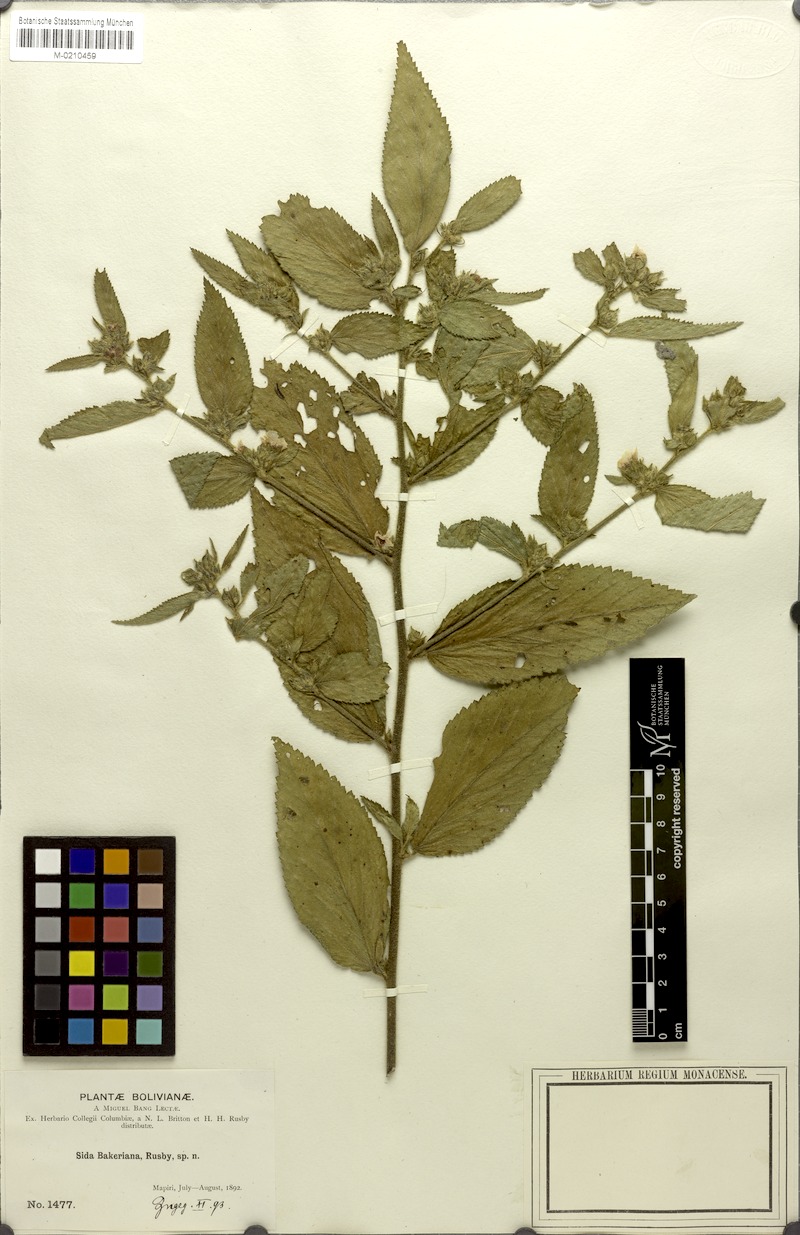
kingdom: Plantae
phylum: Tracheophyta
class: Magnoliopsida
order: Malvales
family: Malvaceae
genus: Sida
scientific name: Sida bakeriana
